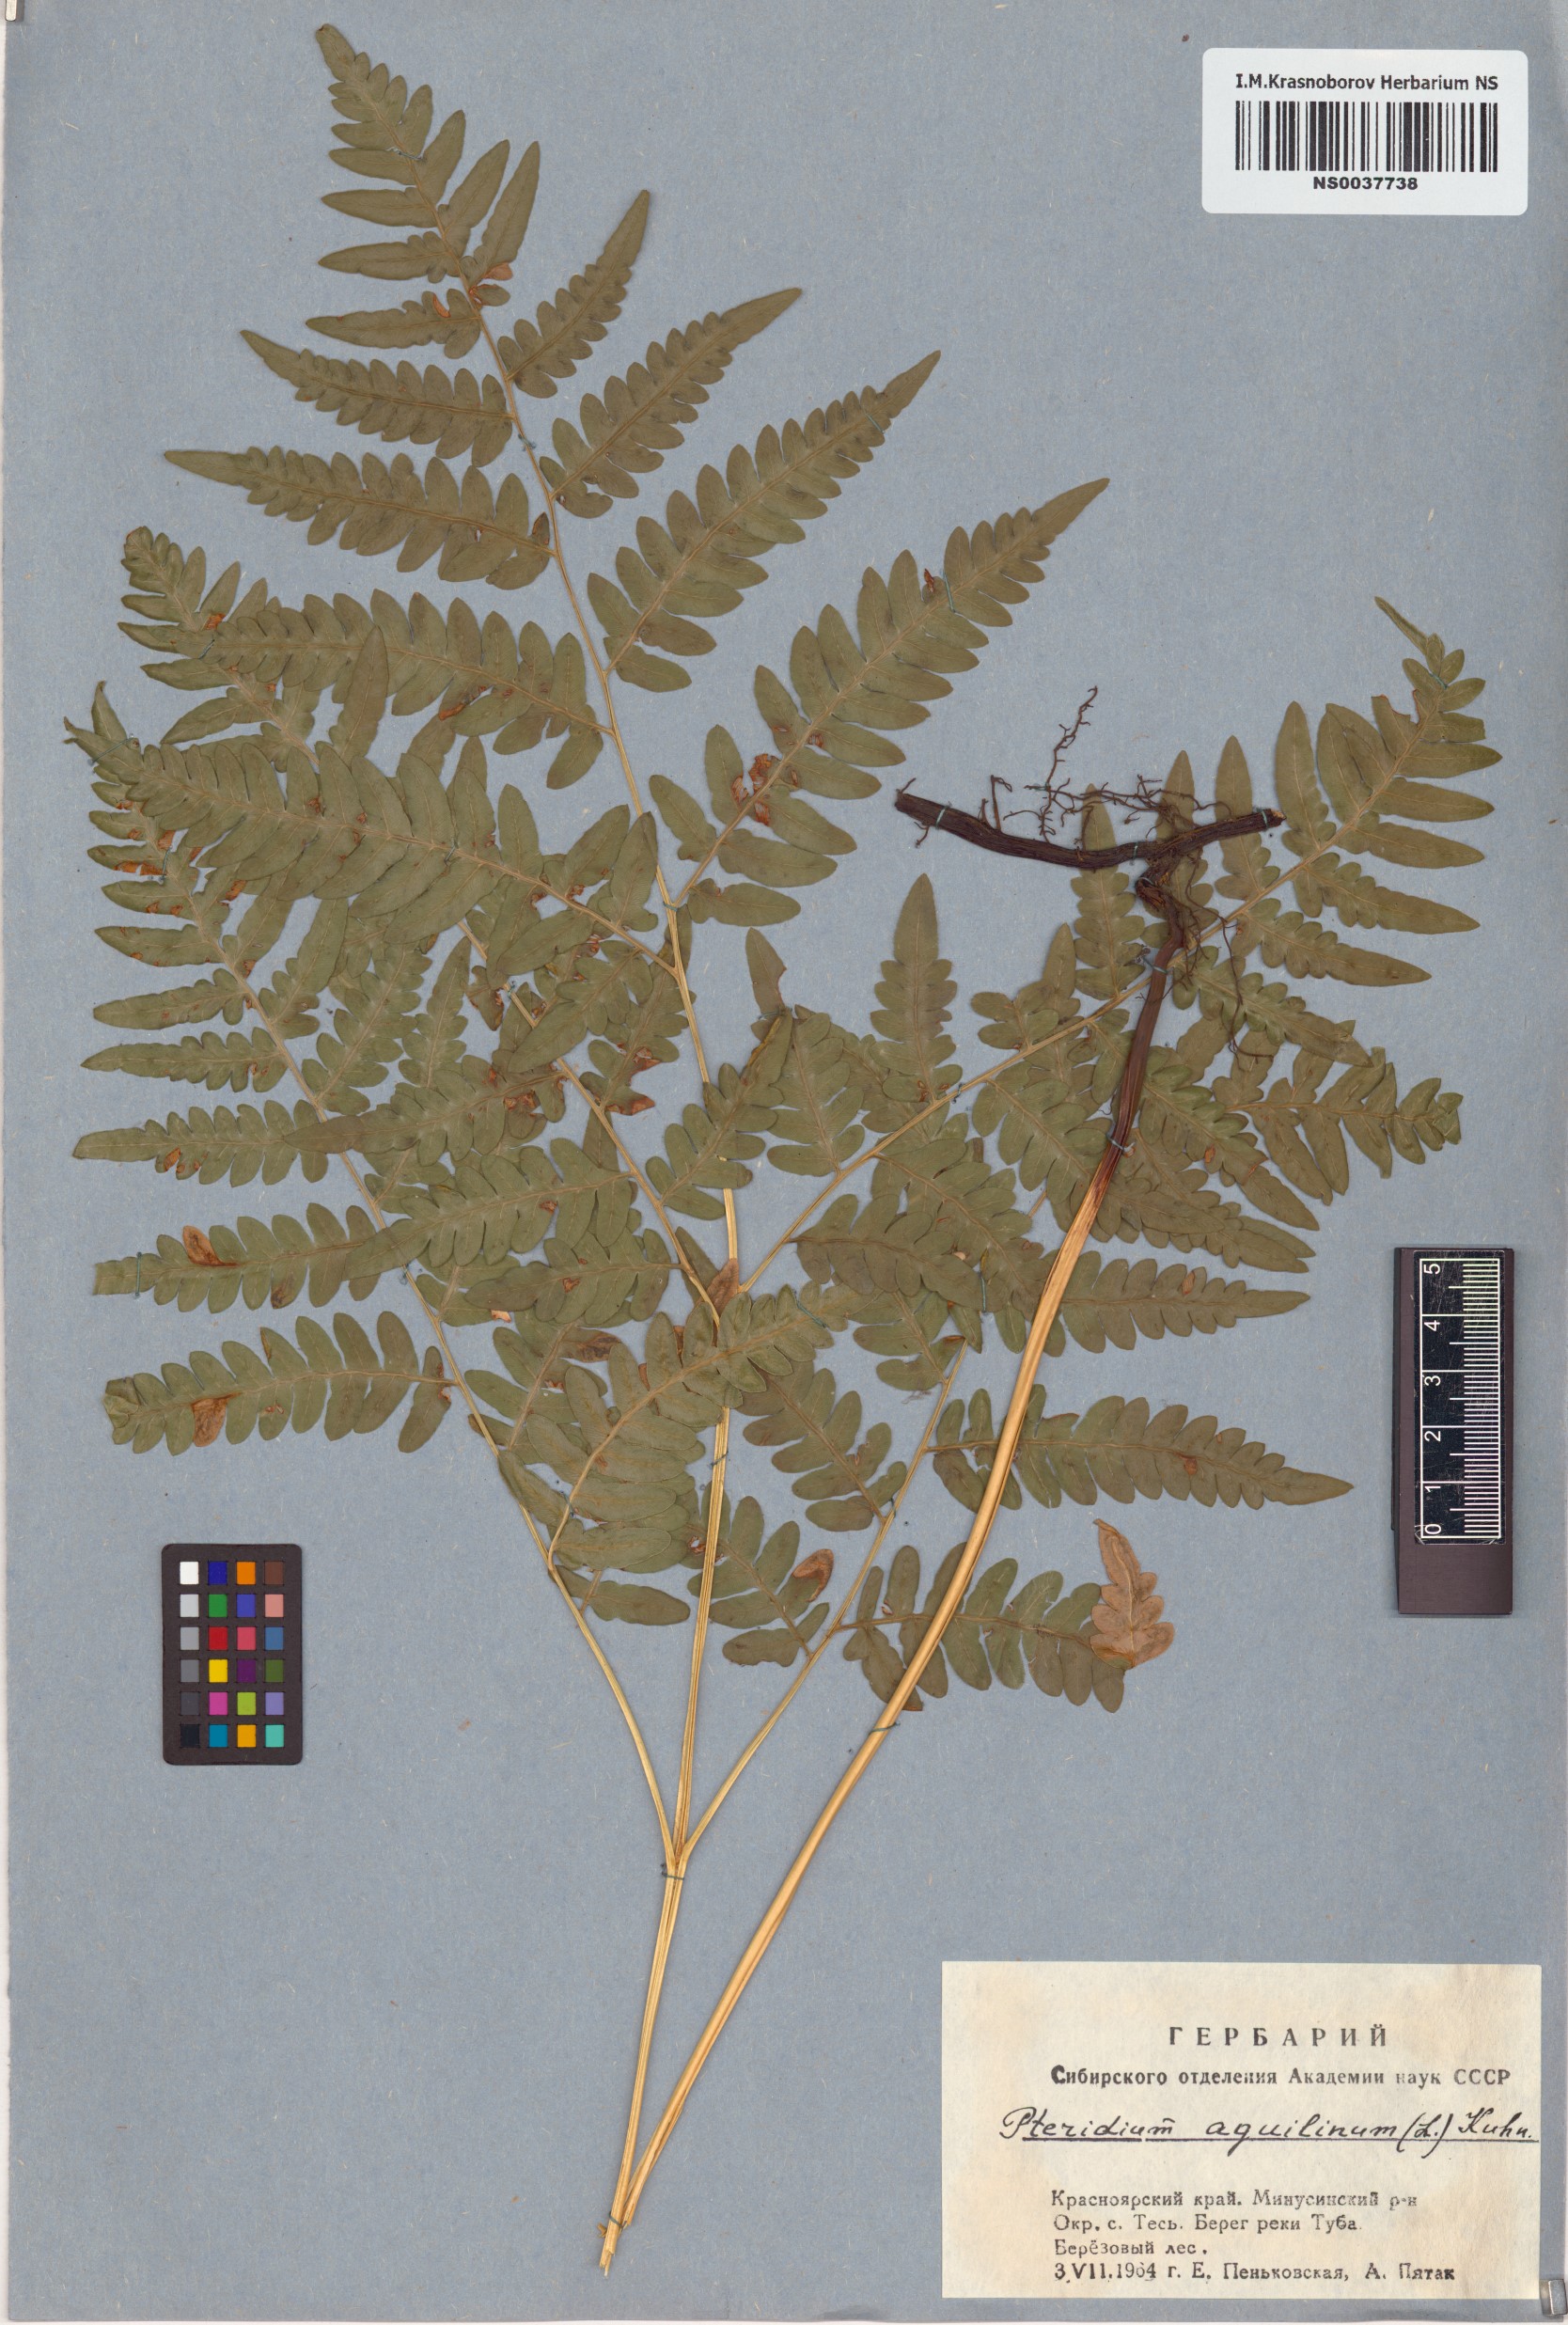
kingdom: Plantae
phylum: Tracheophyta
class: Polypodiopsida
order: Polypodiales
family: Dennstaedtiaceae
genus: Pteridium
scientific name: Pteridium aquilinum
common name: Bracken
